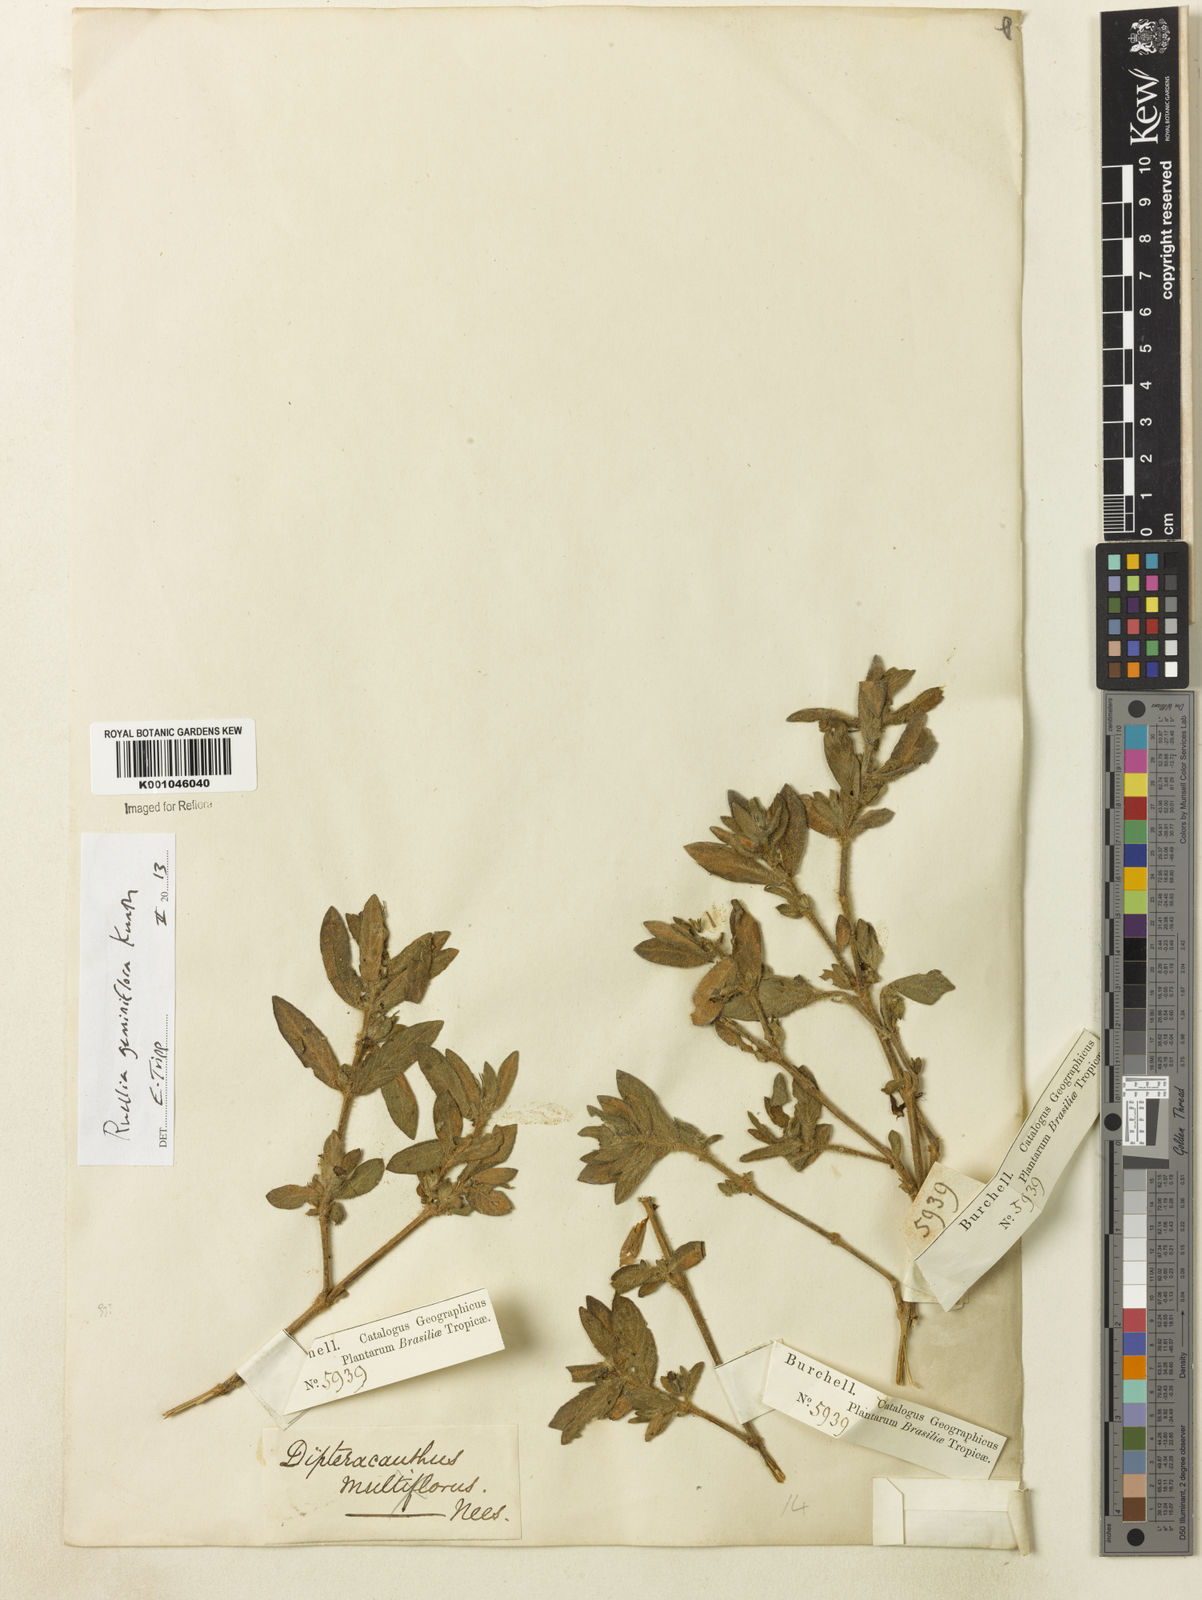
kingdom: Plantae
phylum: Tracheophyta
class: Magnoliopsida
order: Lamiales
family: Acanthaceae
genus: Ruellia
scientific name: Ruellia geminiflora
